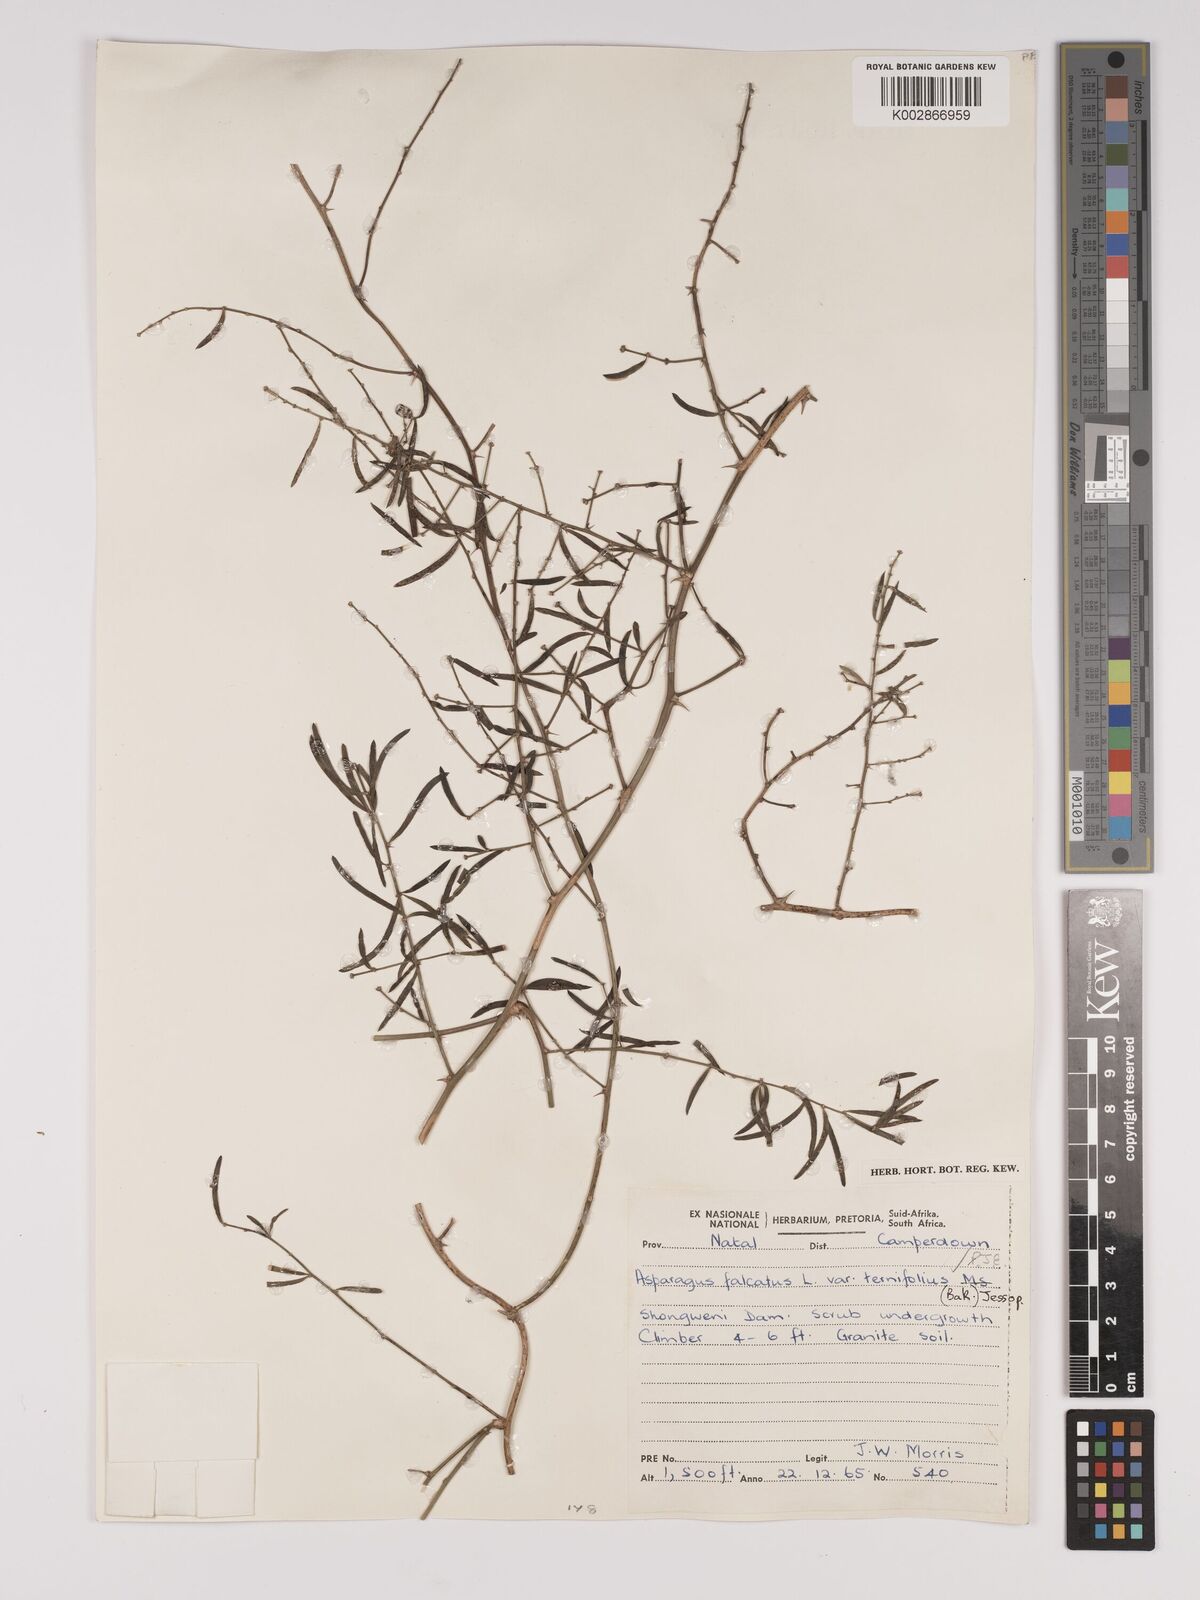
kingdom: Plantae
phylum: Tracheophyta
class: Liliopsida
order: Asparagales
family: Asparagaceae
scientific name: Asparagaceae
